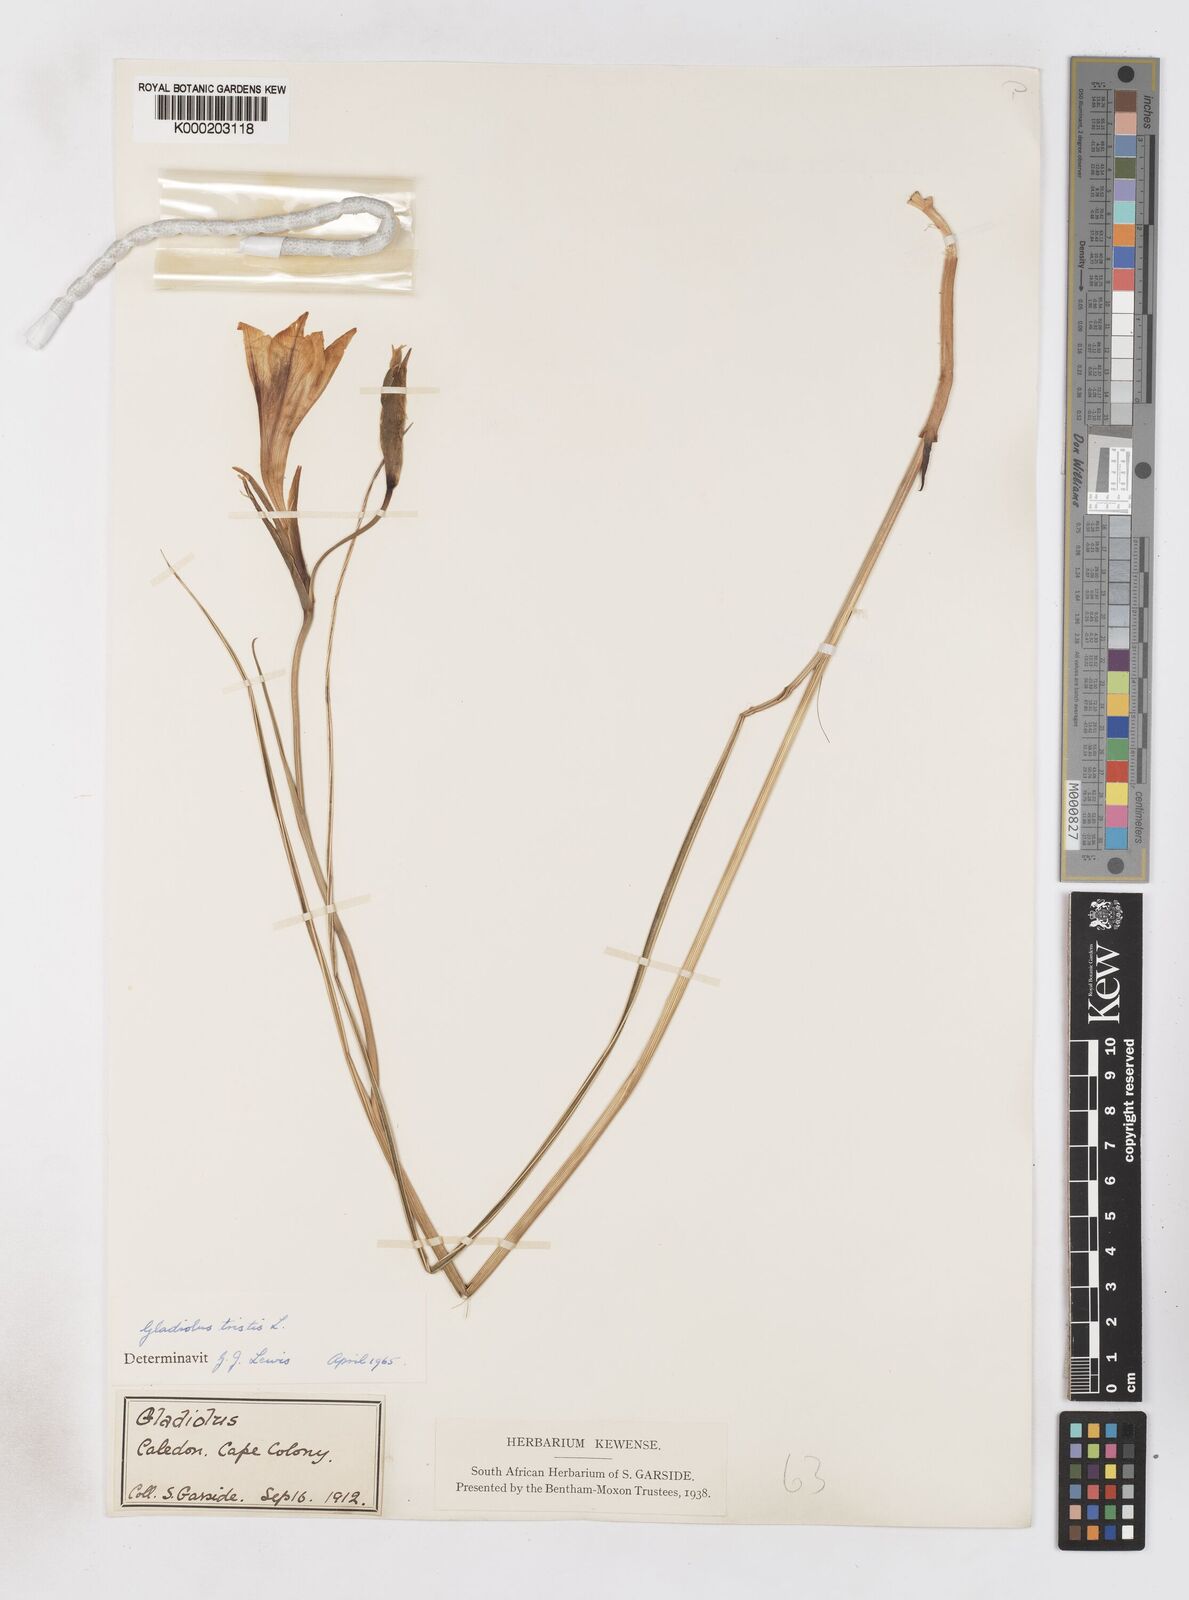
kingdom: Plantae
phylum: Tracheophyta
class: Liliopsida
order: Asparagales
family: Iridaceae
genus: Gladiolus
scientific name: Gladiolus tristis
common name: Ever-flowering gladiolus
